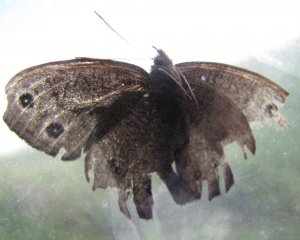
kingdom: Animalia
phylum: Arthropoda
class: Insecta
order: Lepidoptera
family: Nymphalidae
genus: Cercyonis
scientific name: Cercyonis pegala
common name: Common Wood-Nymph
